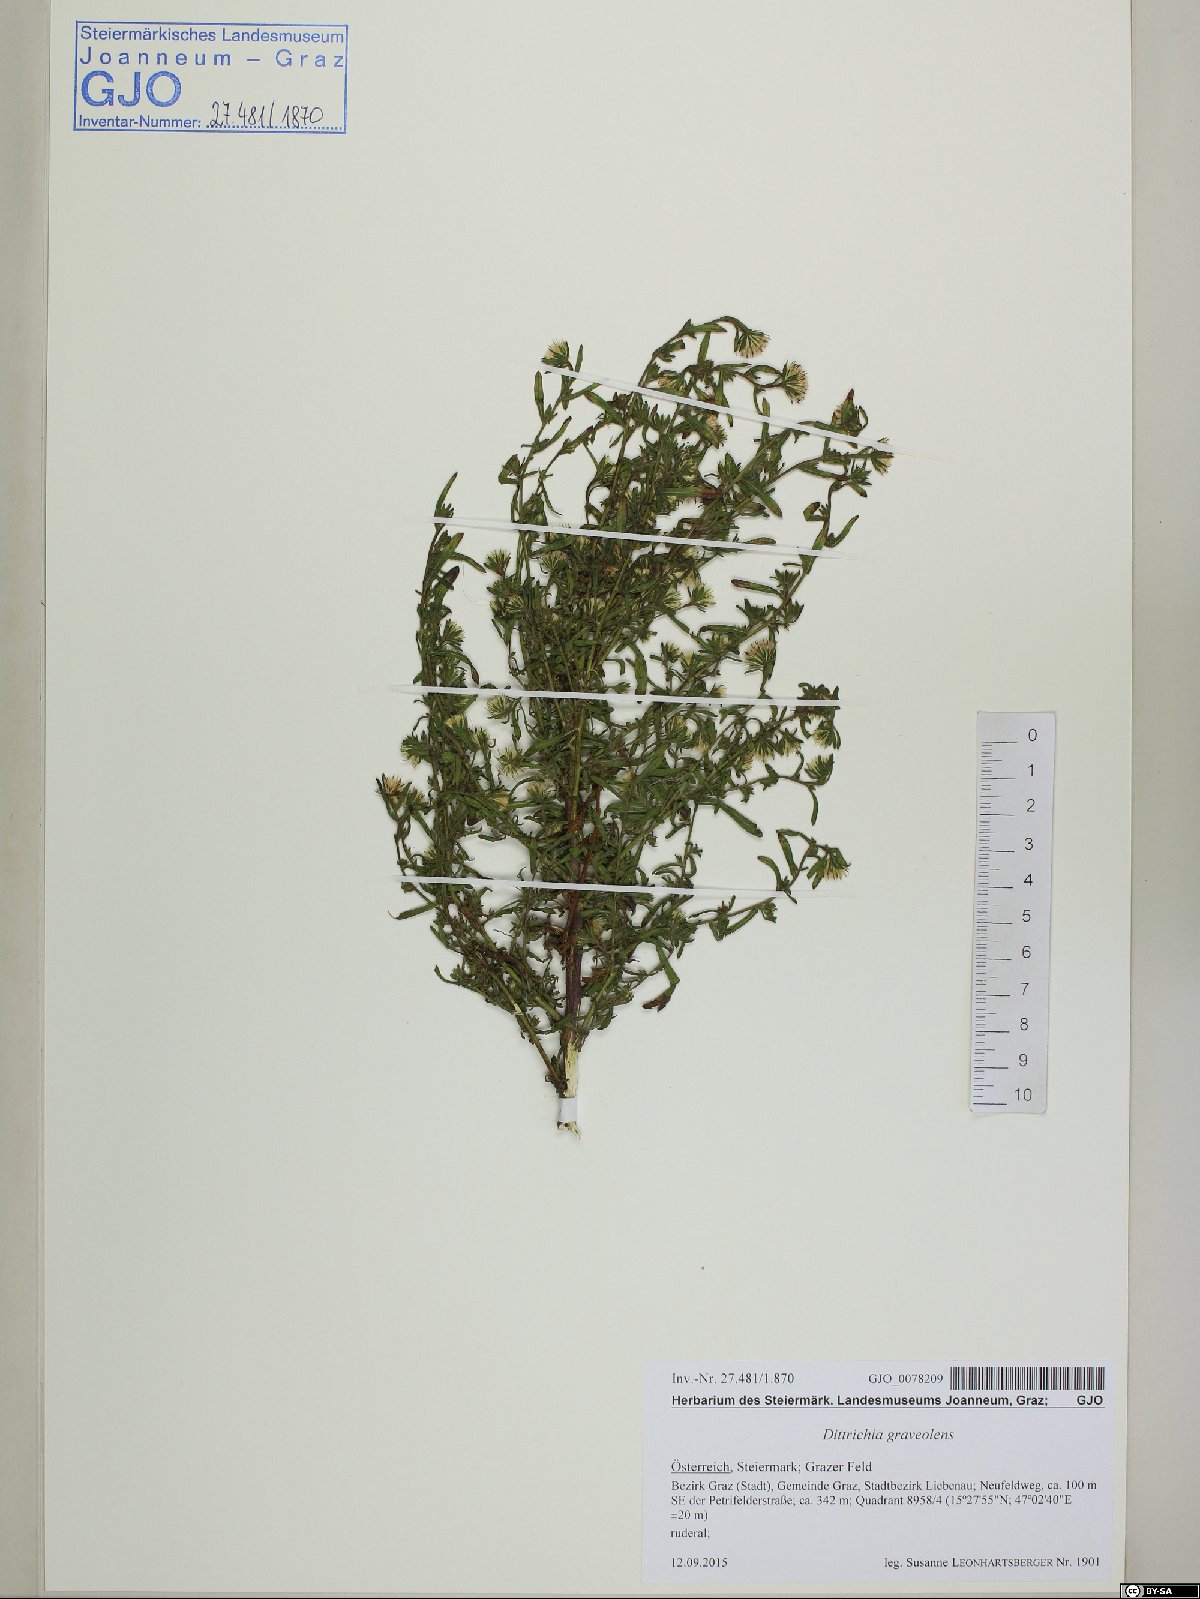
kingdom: Plantae
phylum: Tracheophyta
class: Magnoliopsida
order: Asterales
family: Asteraceae
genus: Dittrichia
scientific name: Dittrichia graveolens
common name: Stinking fleabane
